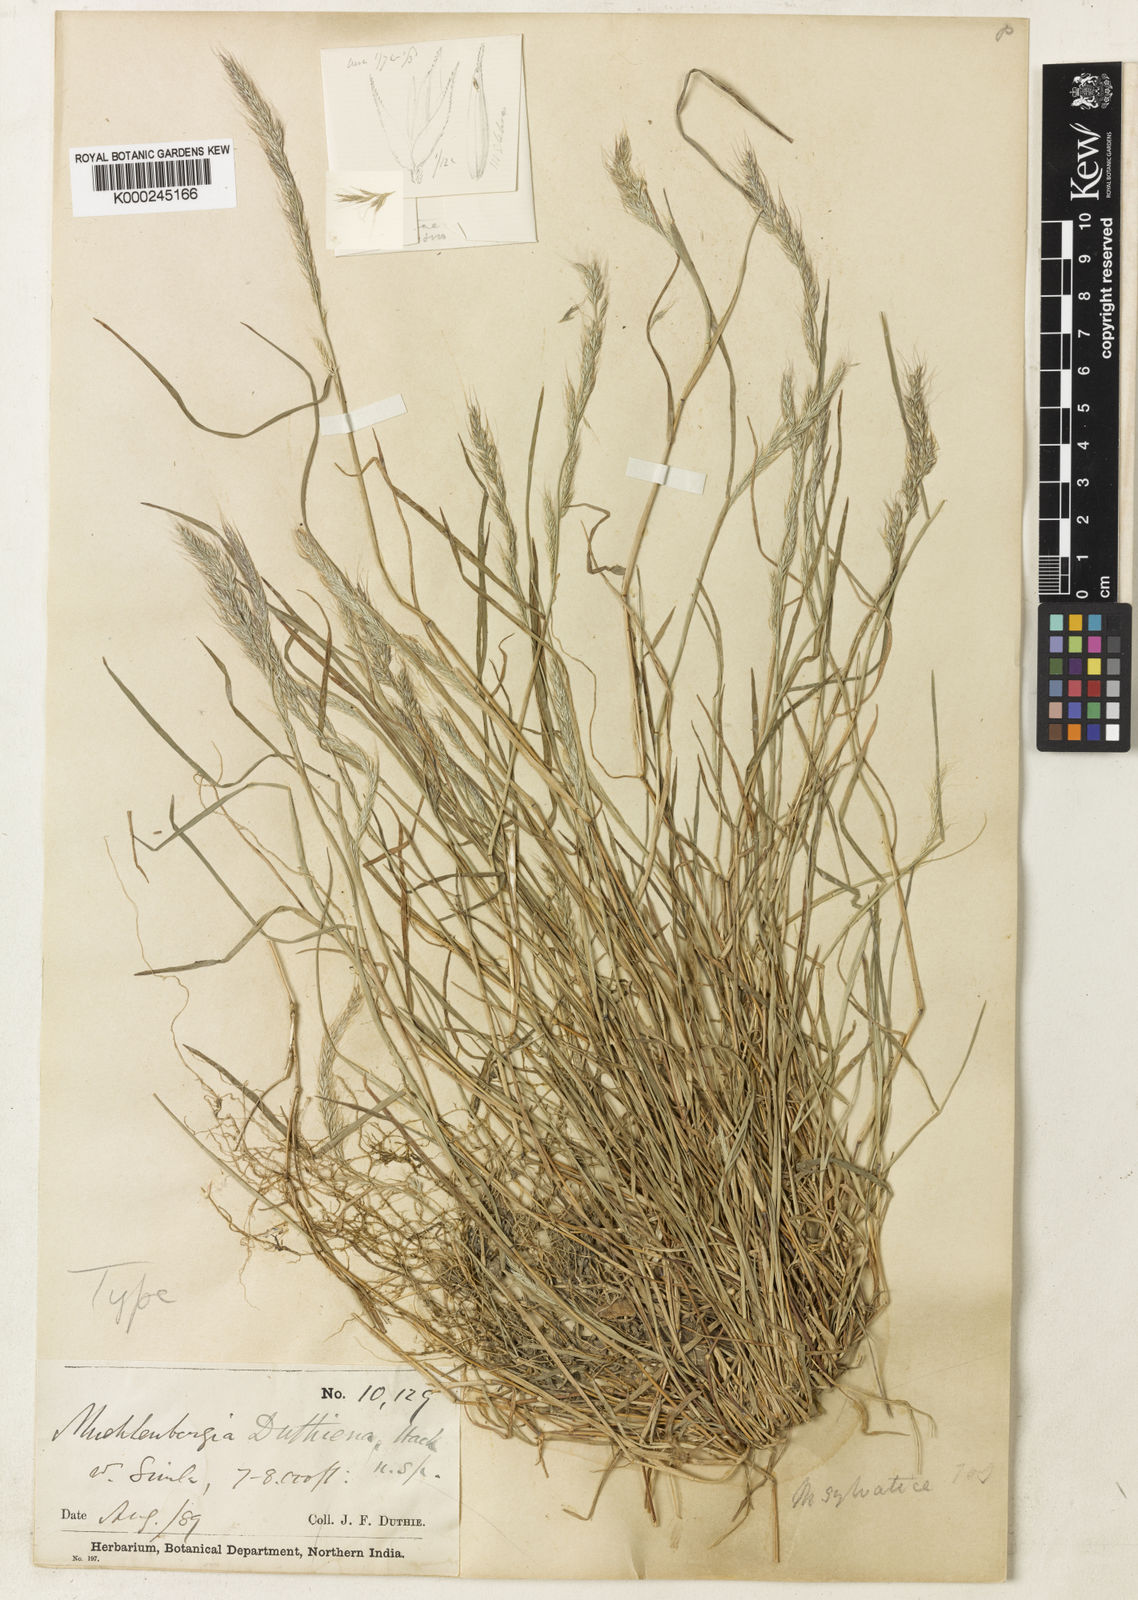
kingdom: Plantae
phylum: Tracheophyta
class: Liliopsida
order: Poales
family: Poaceae
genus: Muhlenbergia
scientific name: Muhlenbergia duthieana
